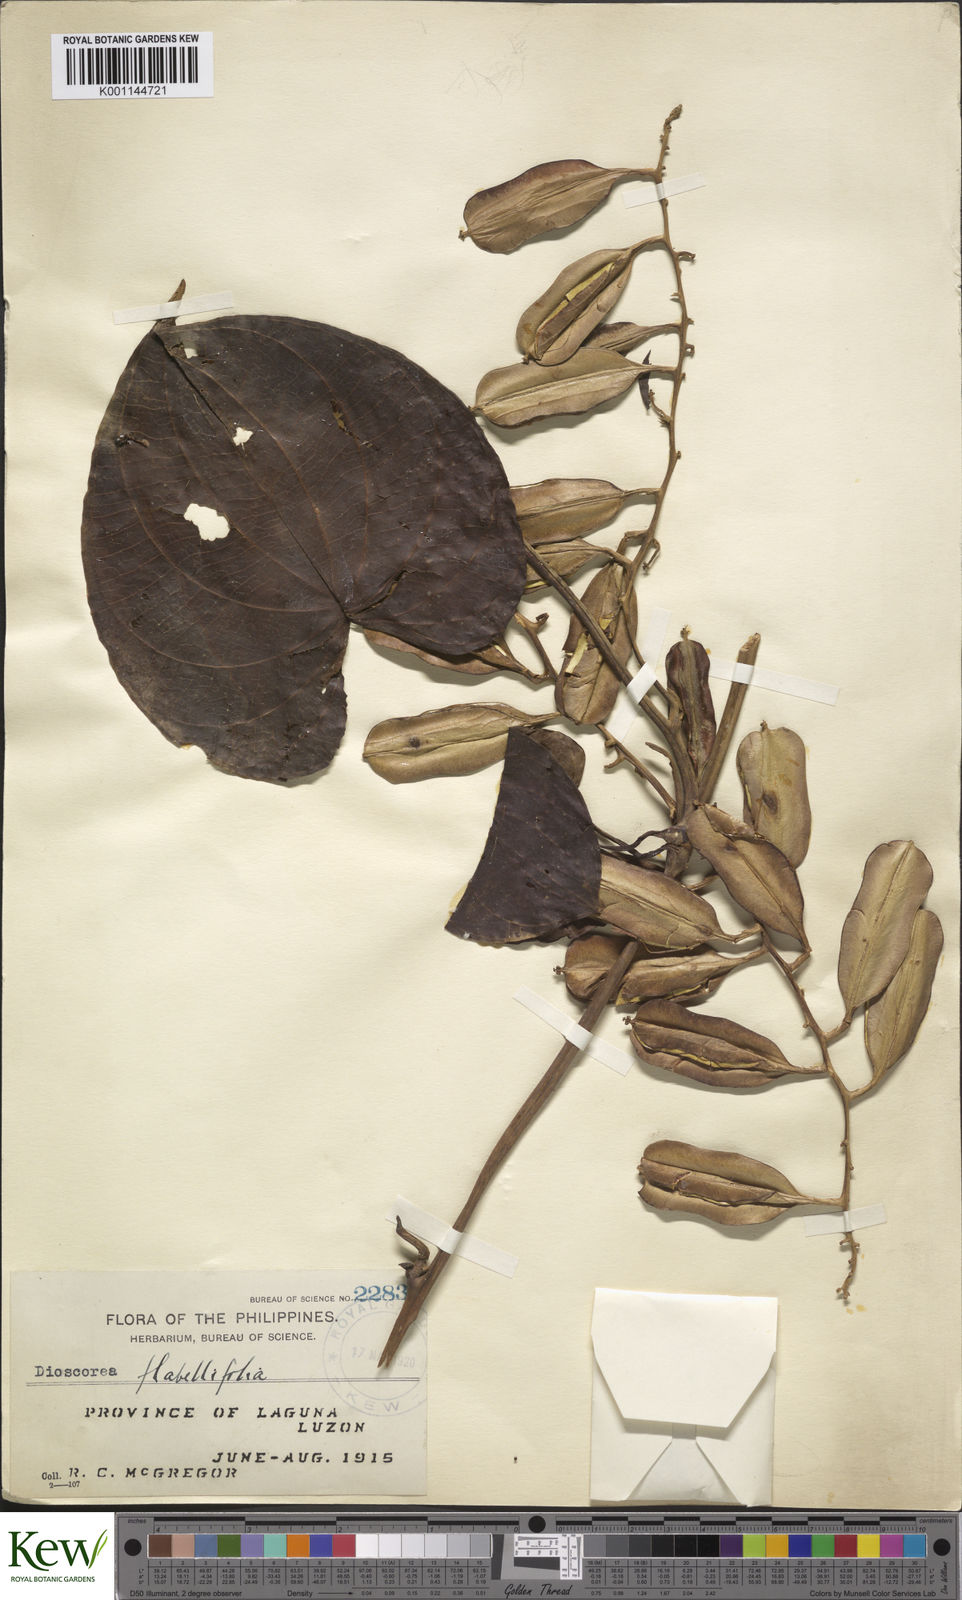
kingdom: Plantae
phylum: Tracheophyta
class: Liliopsida
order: Dioscoreales
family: Dioscoreaceae
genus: Dioscorea
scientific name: Dioscorea flabellifolia
